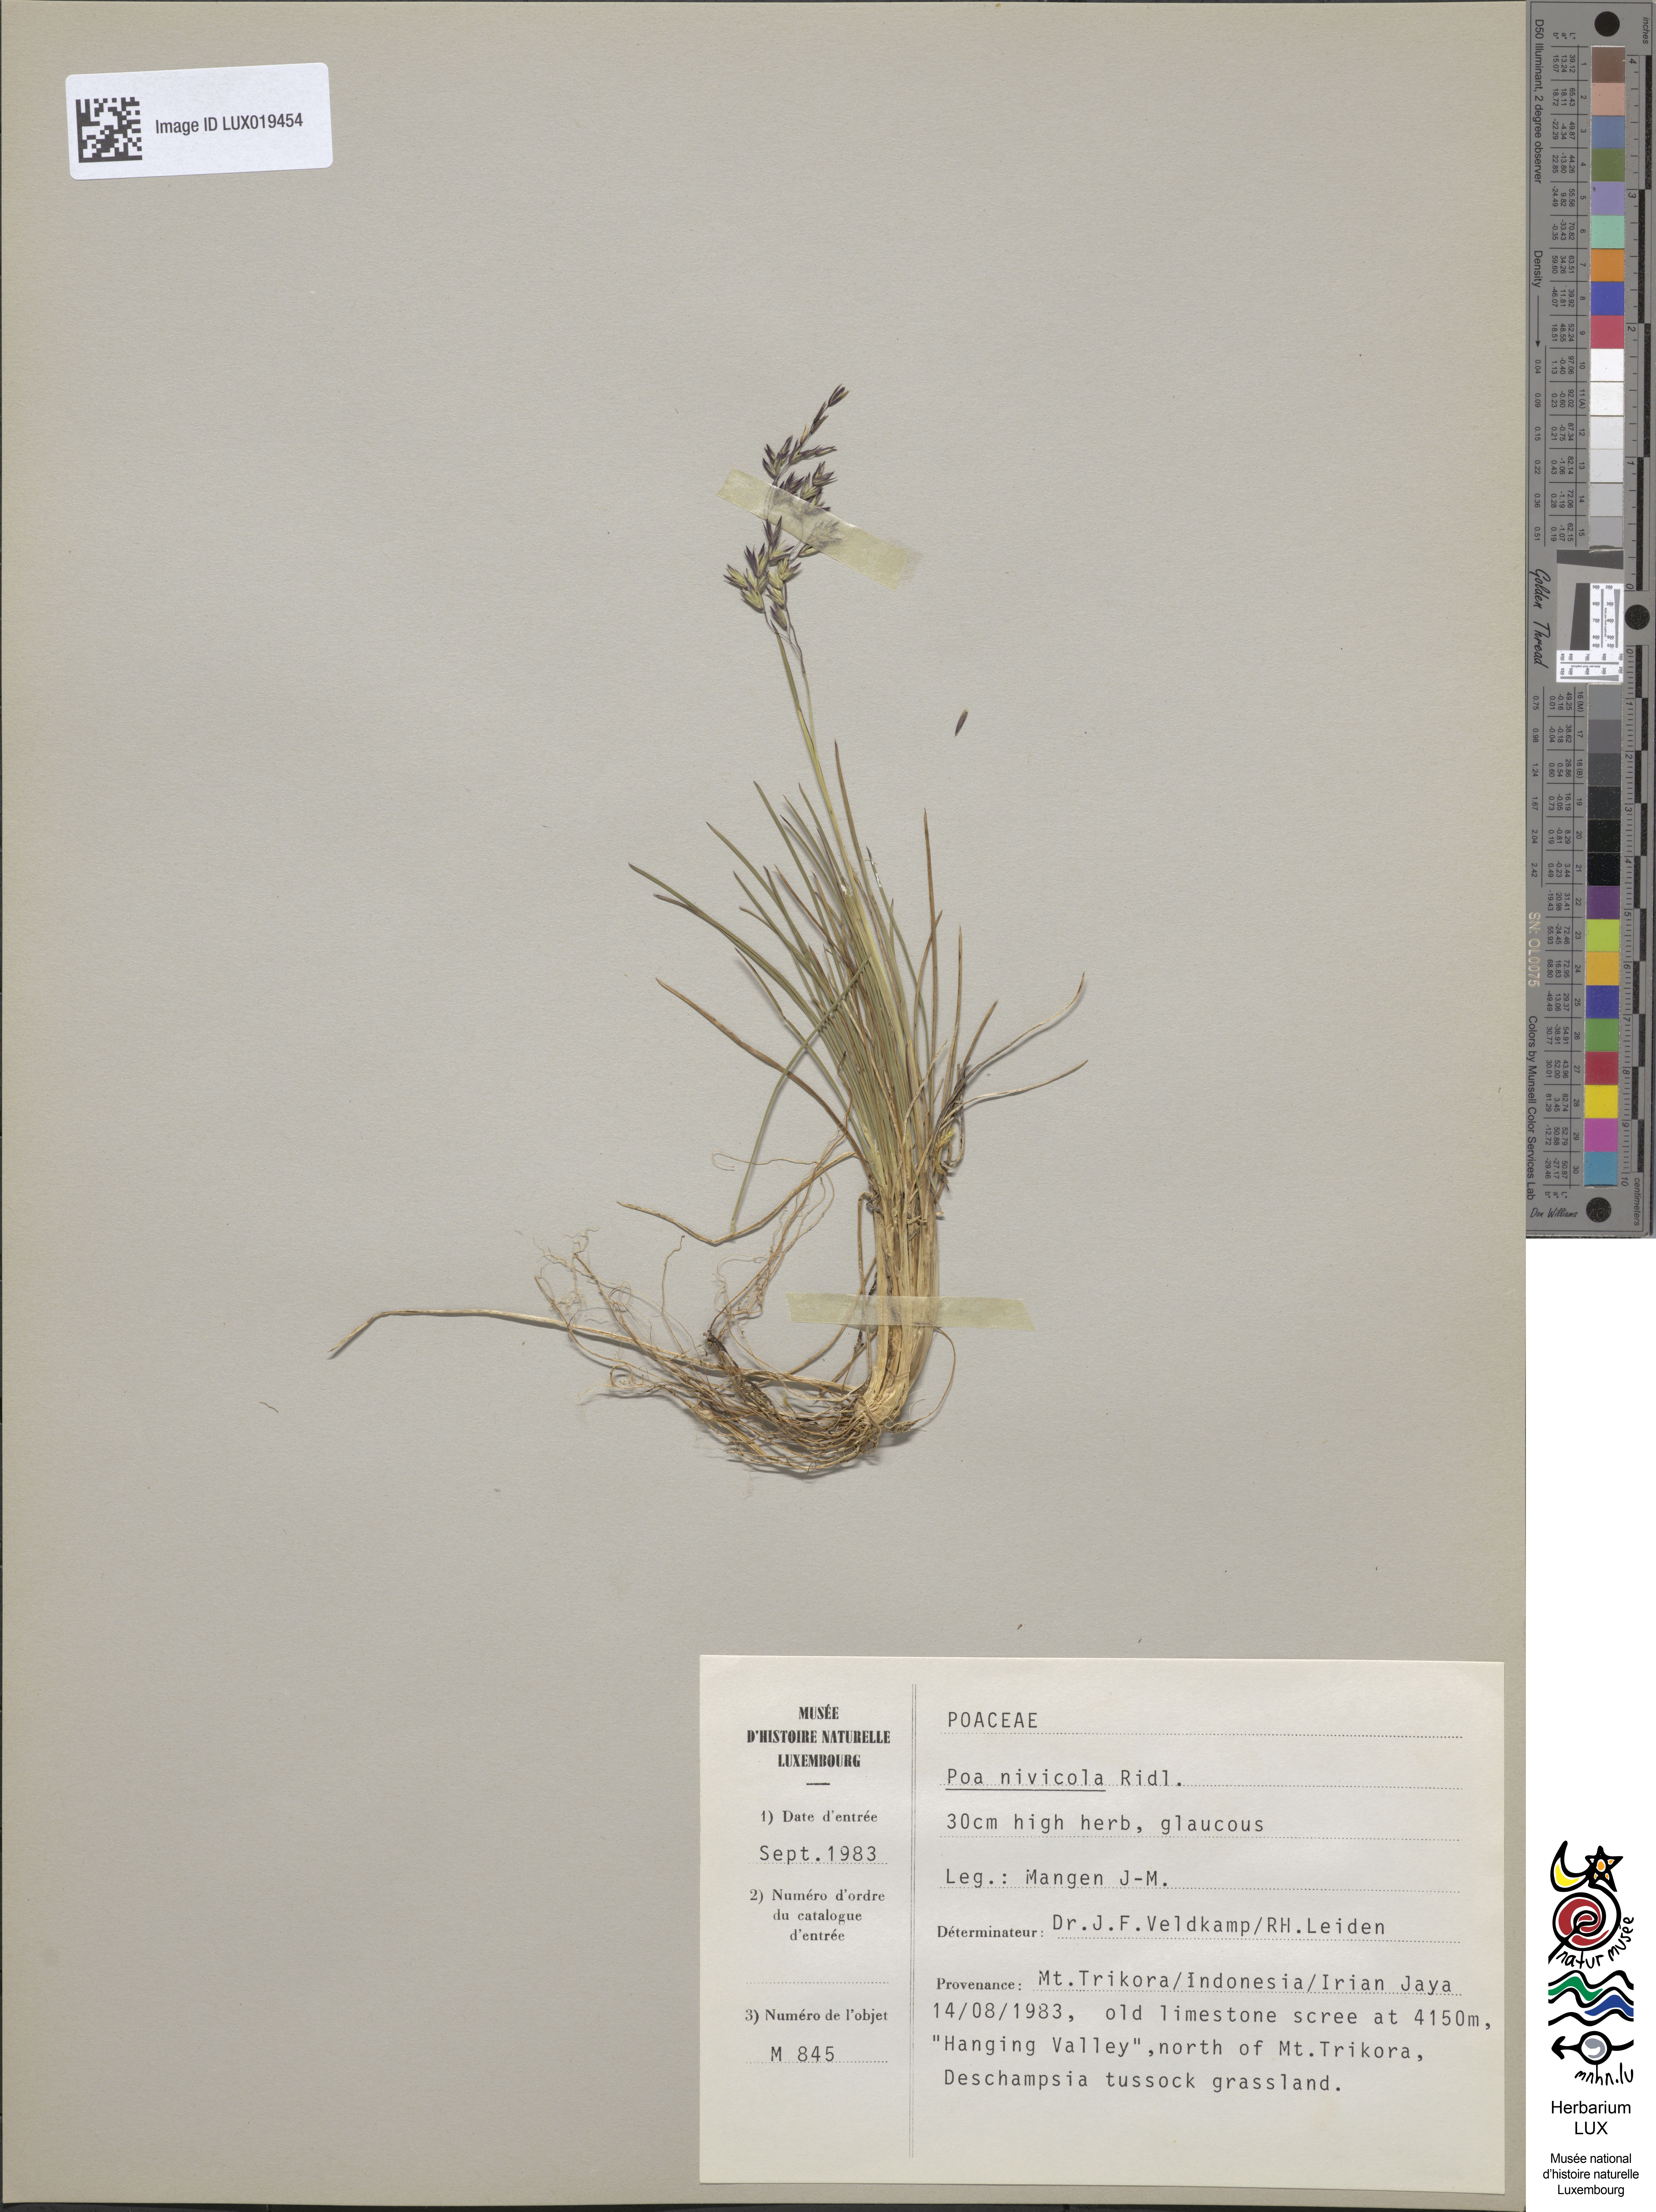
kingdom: Plantae
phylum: Tracheophyta
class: Liliopsida
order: Poales
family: Poaceae
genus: Poa
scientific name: Poa nivicola
